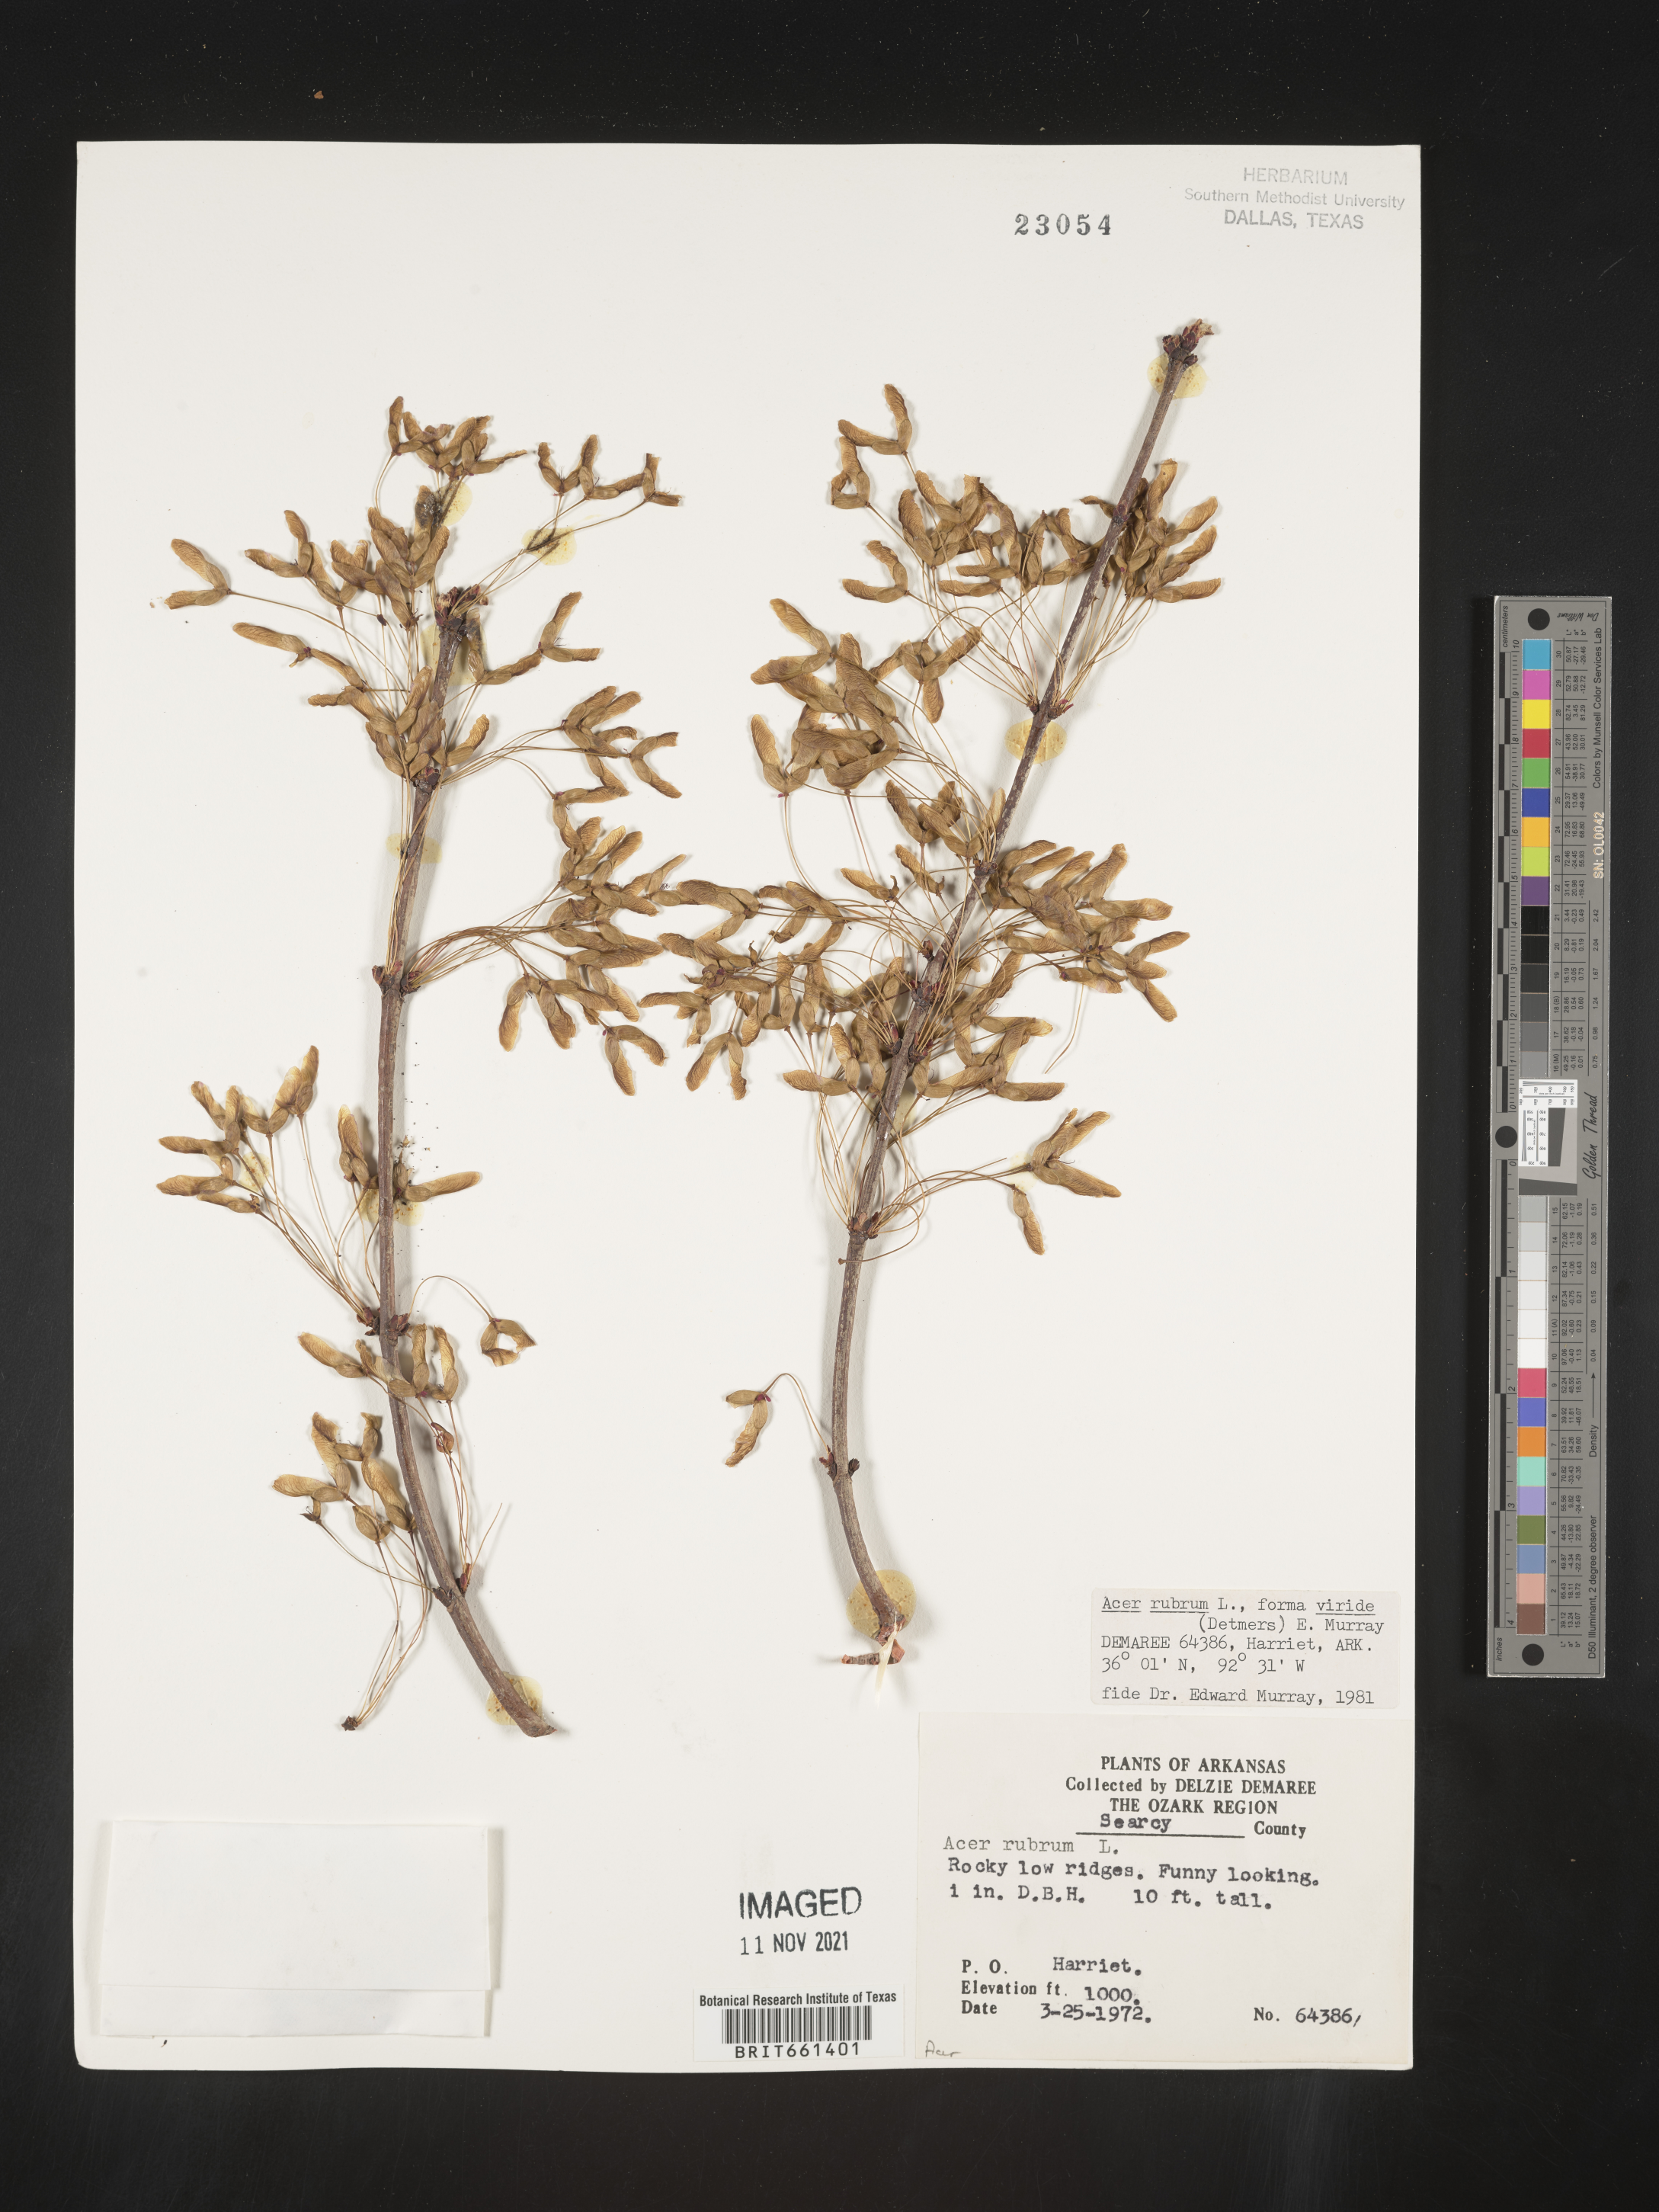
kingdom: Plantae
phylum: Tracheophyta
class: Magnoliopsida
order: Sapindales
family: Sapindaceae
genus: Acer
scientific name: Acer rubrum
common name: Red maple
